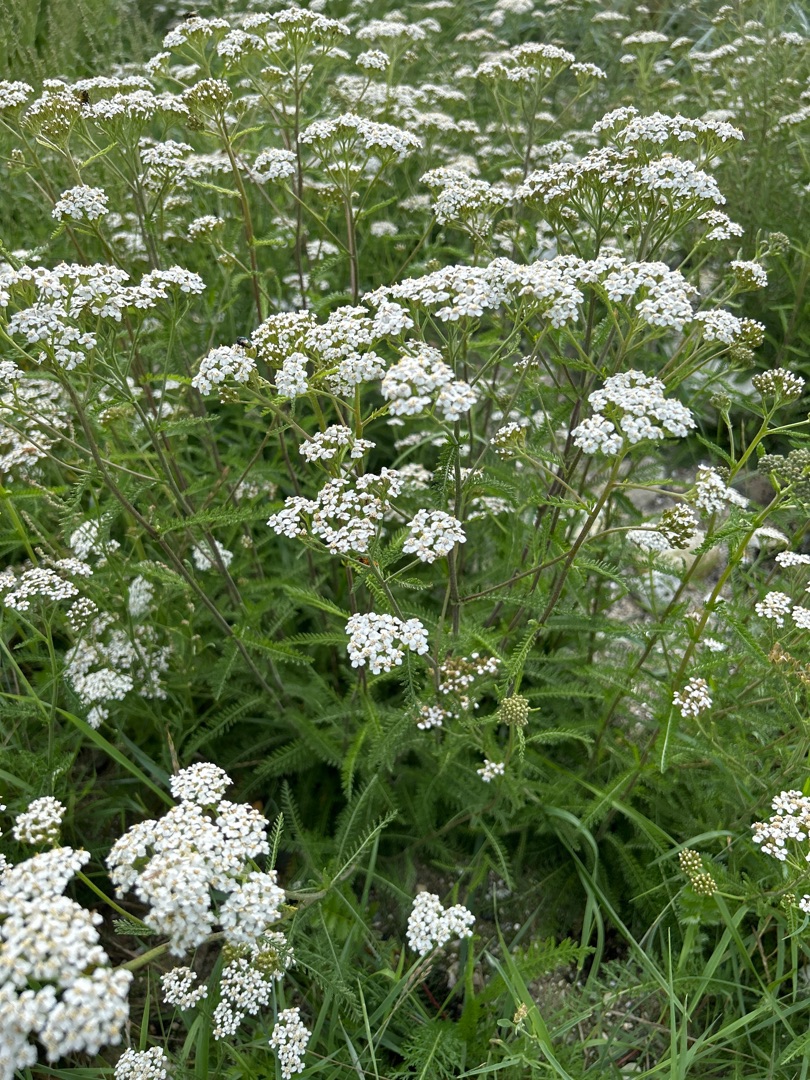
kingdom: Plantae
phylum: Tracheophyta
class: Magnoliopsida
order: Asterales
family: Asteraceae
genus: Achillea
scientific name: Achillea millefolium
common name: Almindelig røllike
